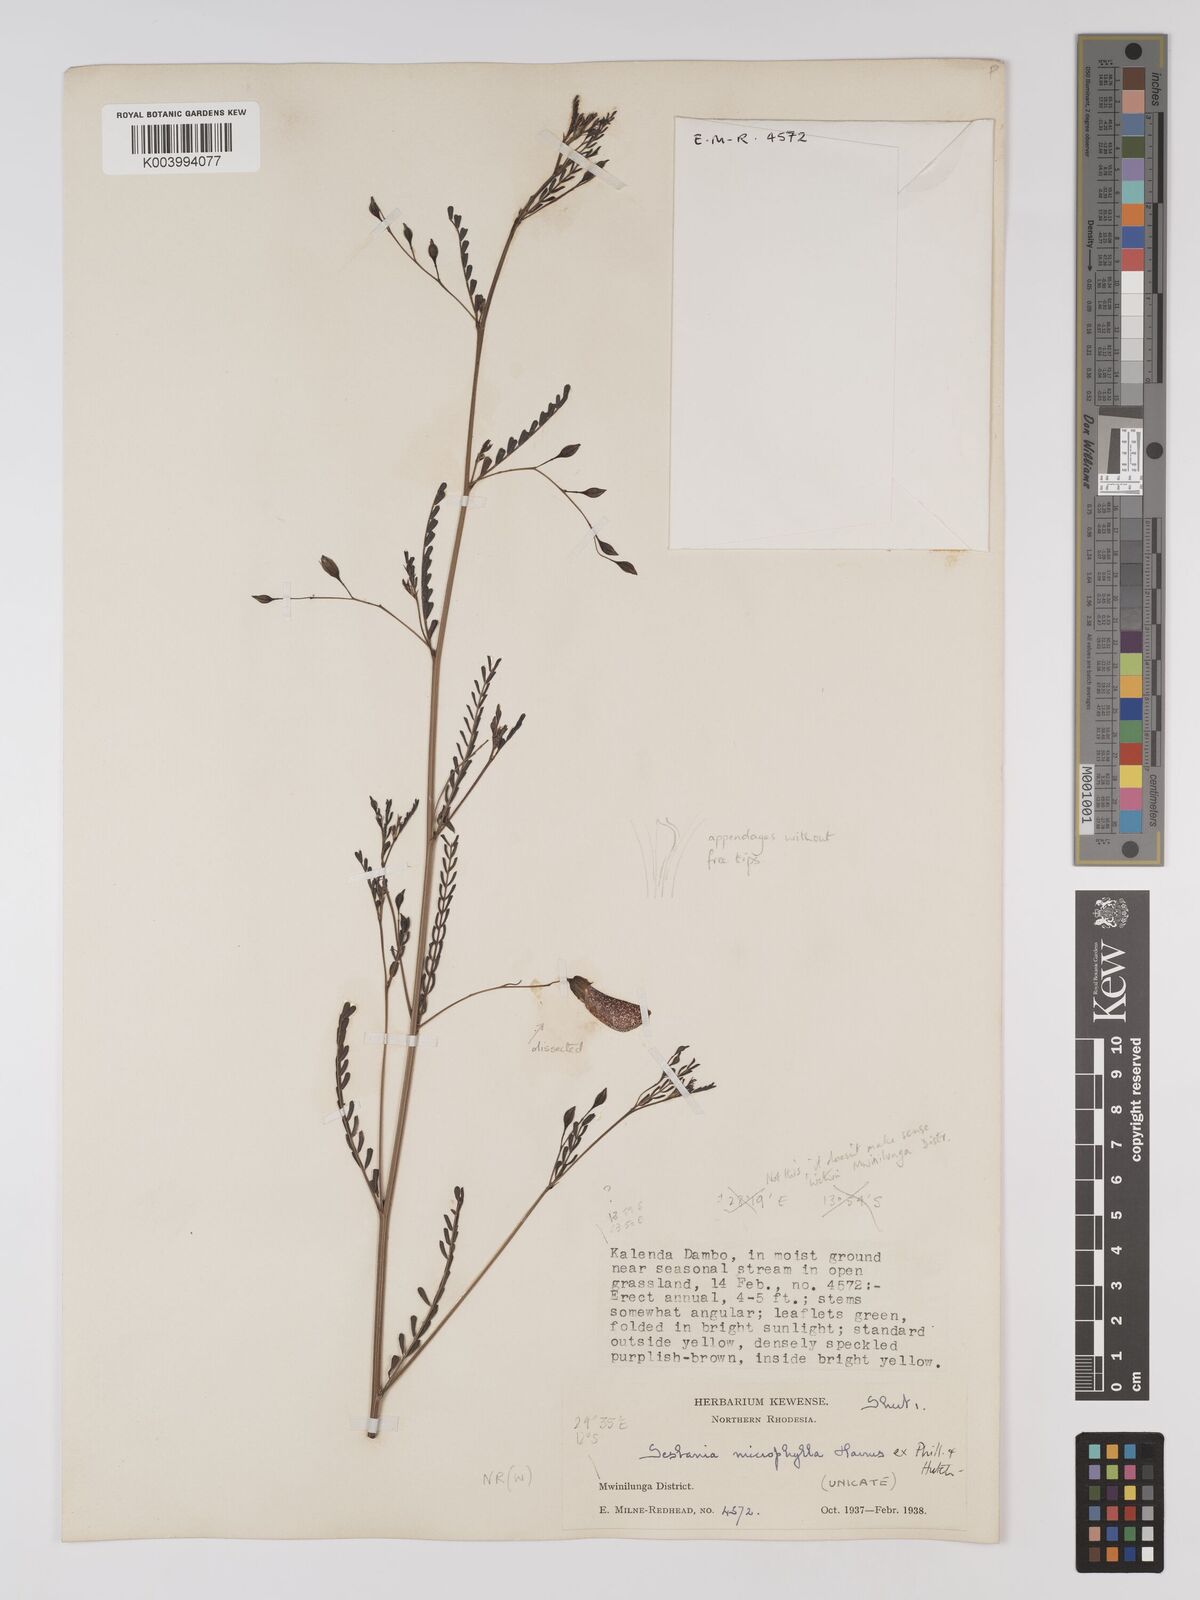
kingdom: Plantae
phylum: Tracheophyta
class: Magnoliopsida
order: Fabales
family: Fabaceae
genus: Sesbania
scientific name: Sesbania microphylla
